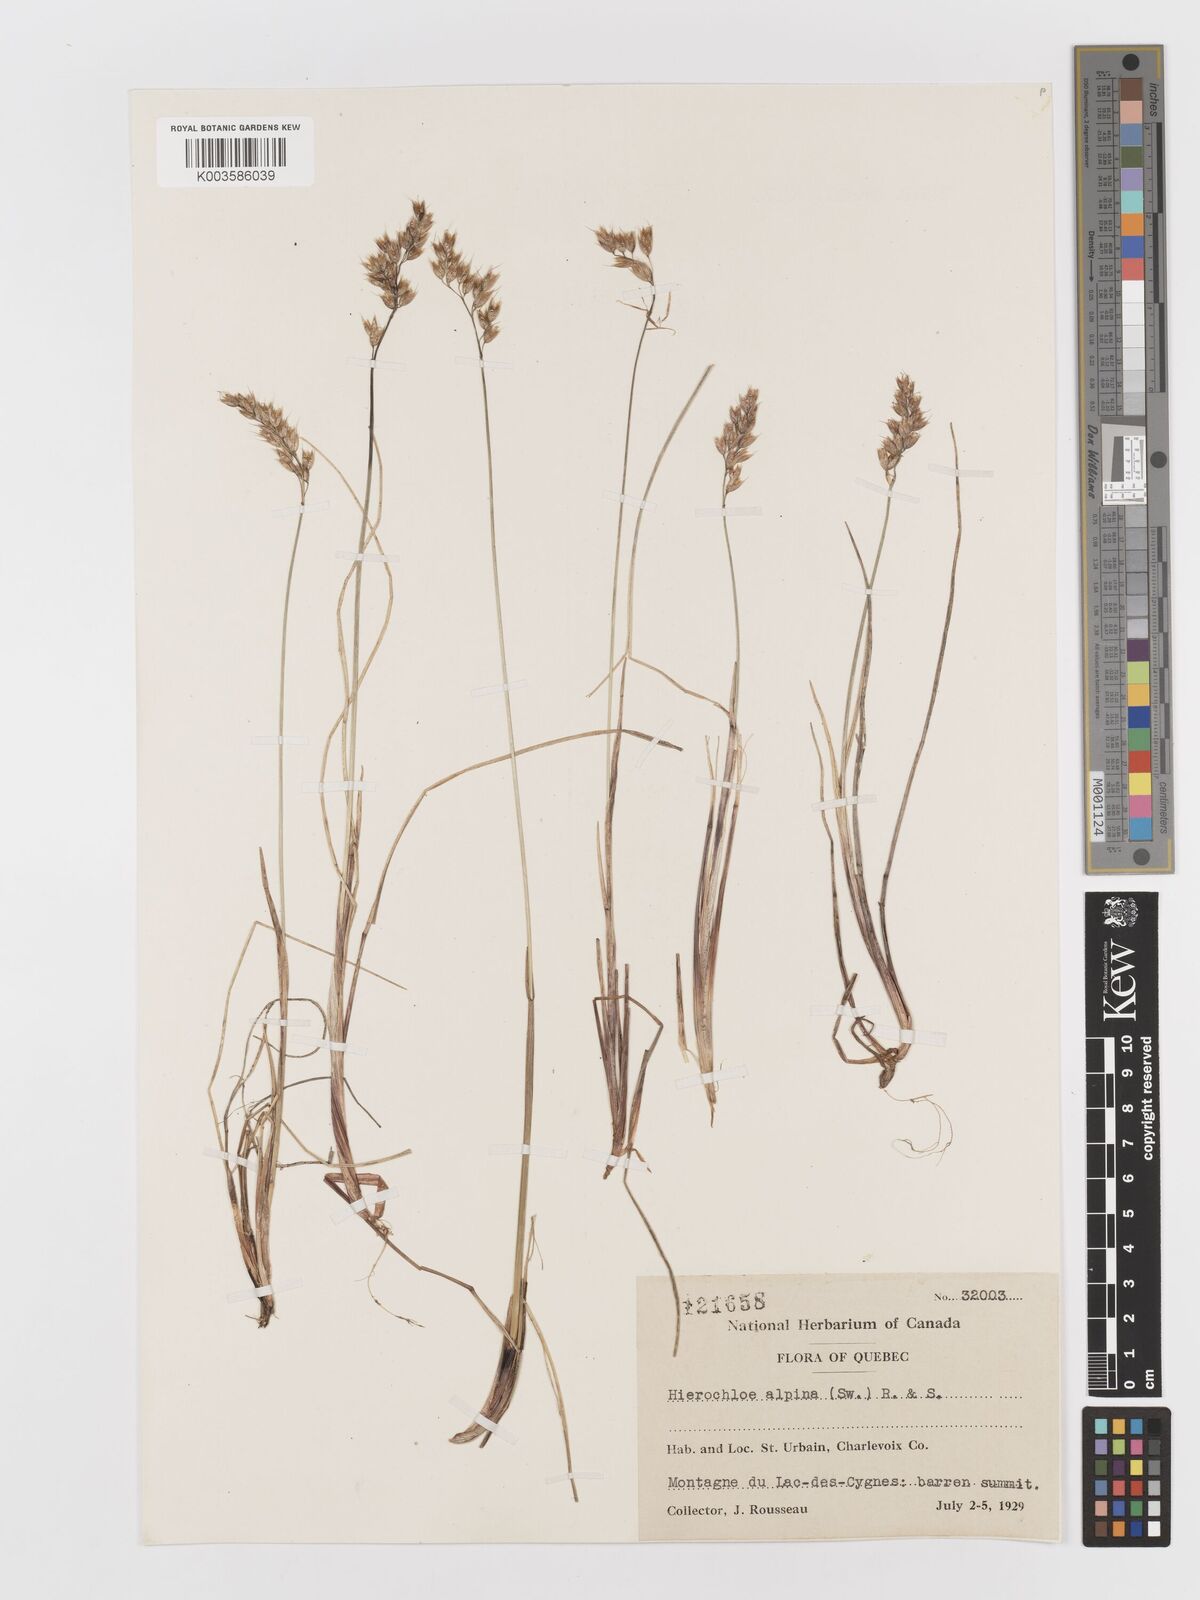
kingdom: Plantae
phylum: Tracheophyta
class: Liliopsida
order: Poales
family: Poaceae
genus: Anthoxanthum
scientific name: Anthoxanthum monticola
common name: Alpine sweetgrass
